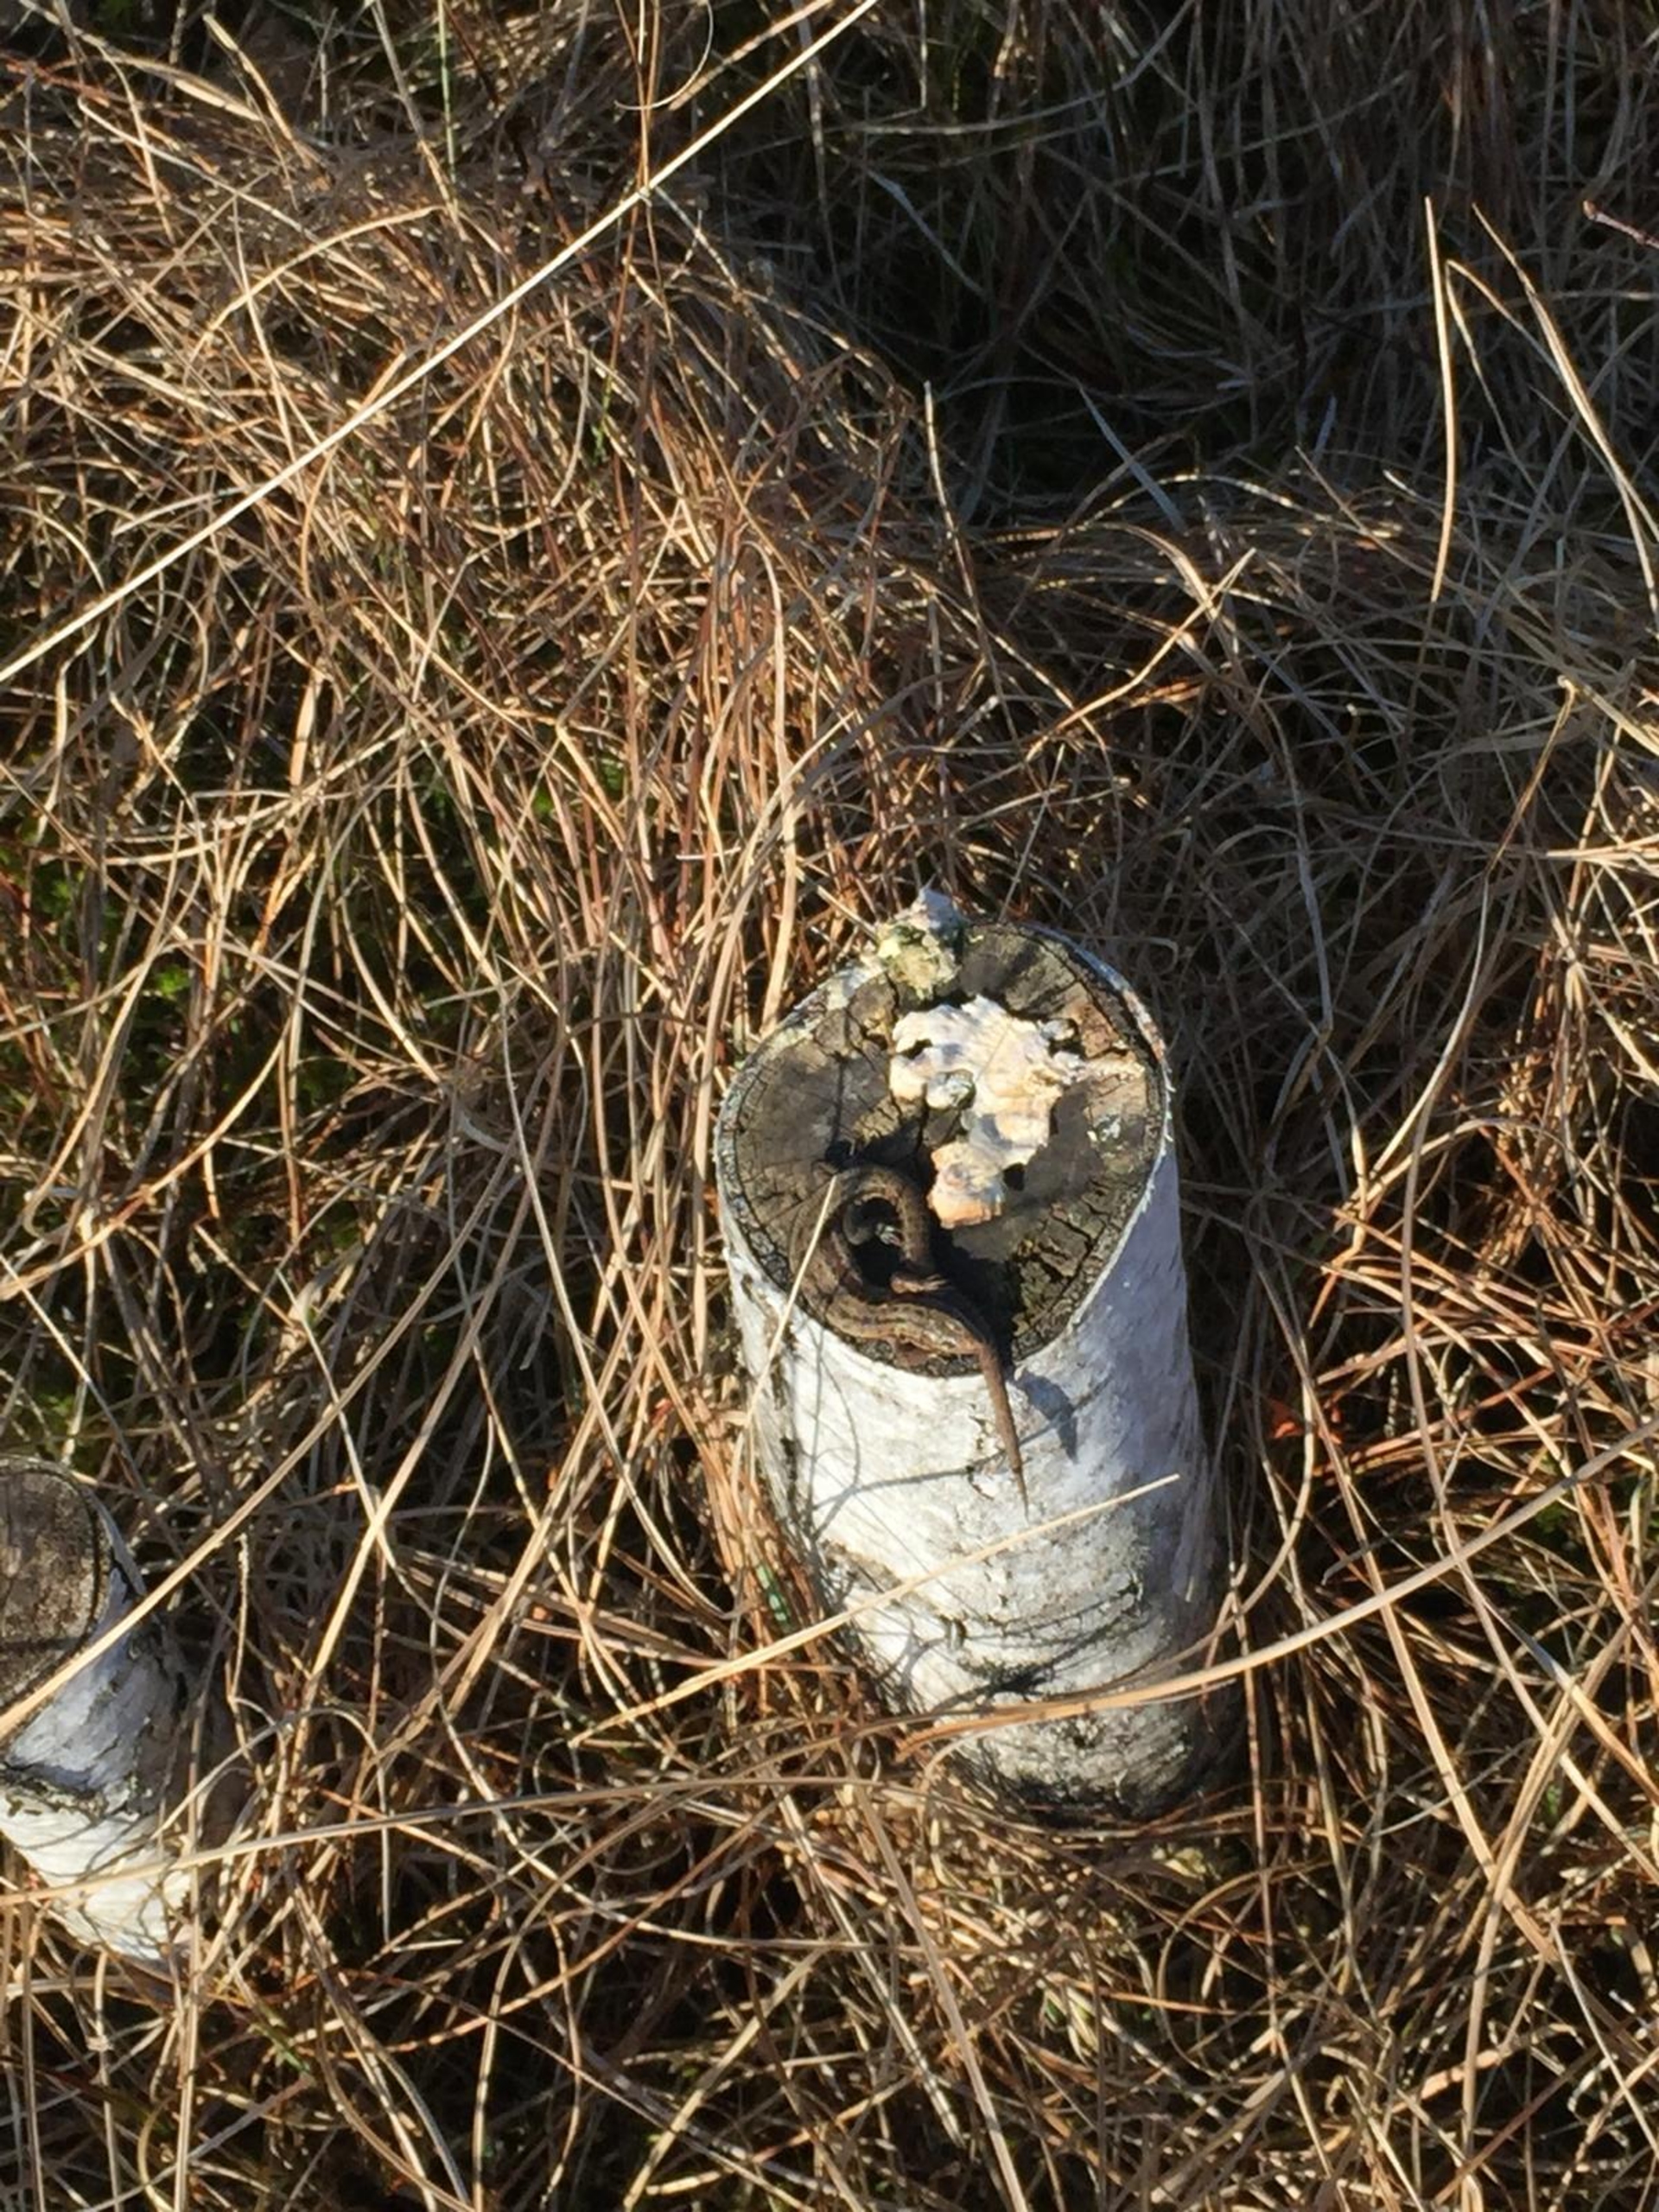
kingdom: Animalia
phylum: Chordata
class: Squamata
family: Lacertidae
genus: Zootoca
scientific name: Zootoca vivipara
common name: Skovfirben
